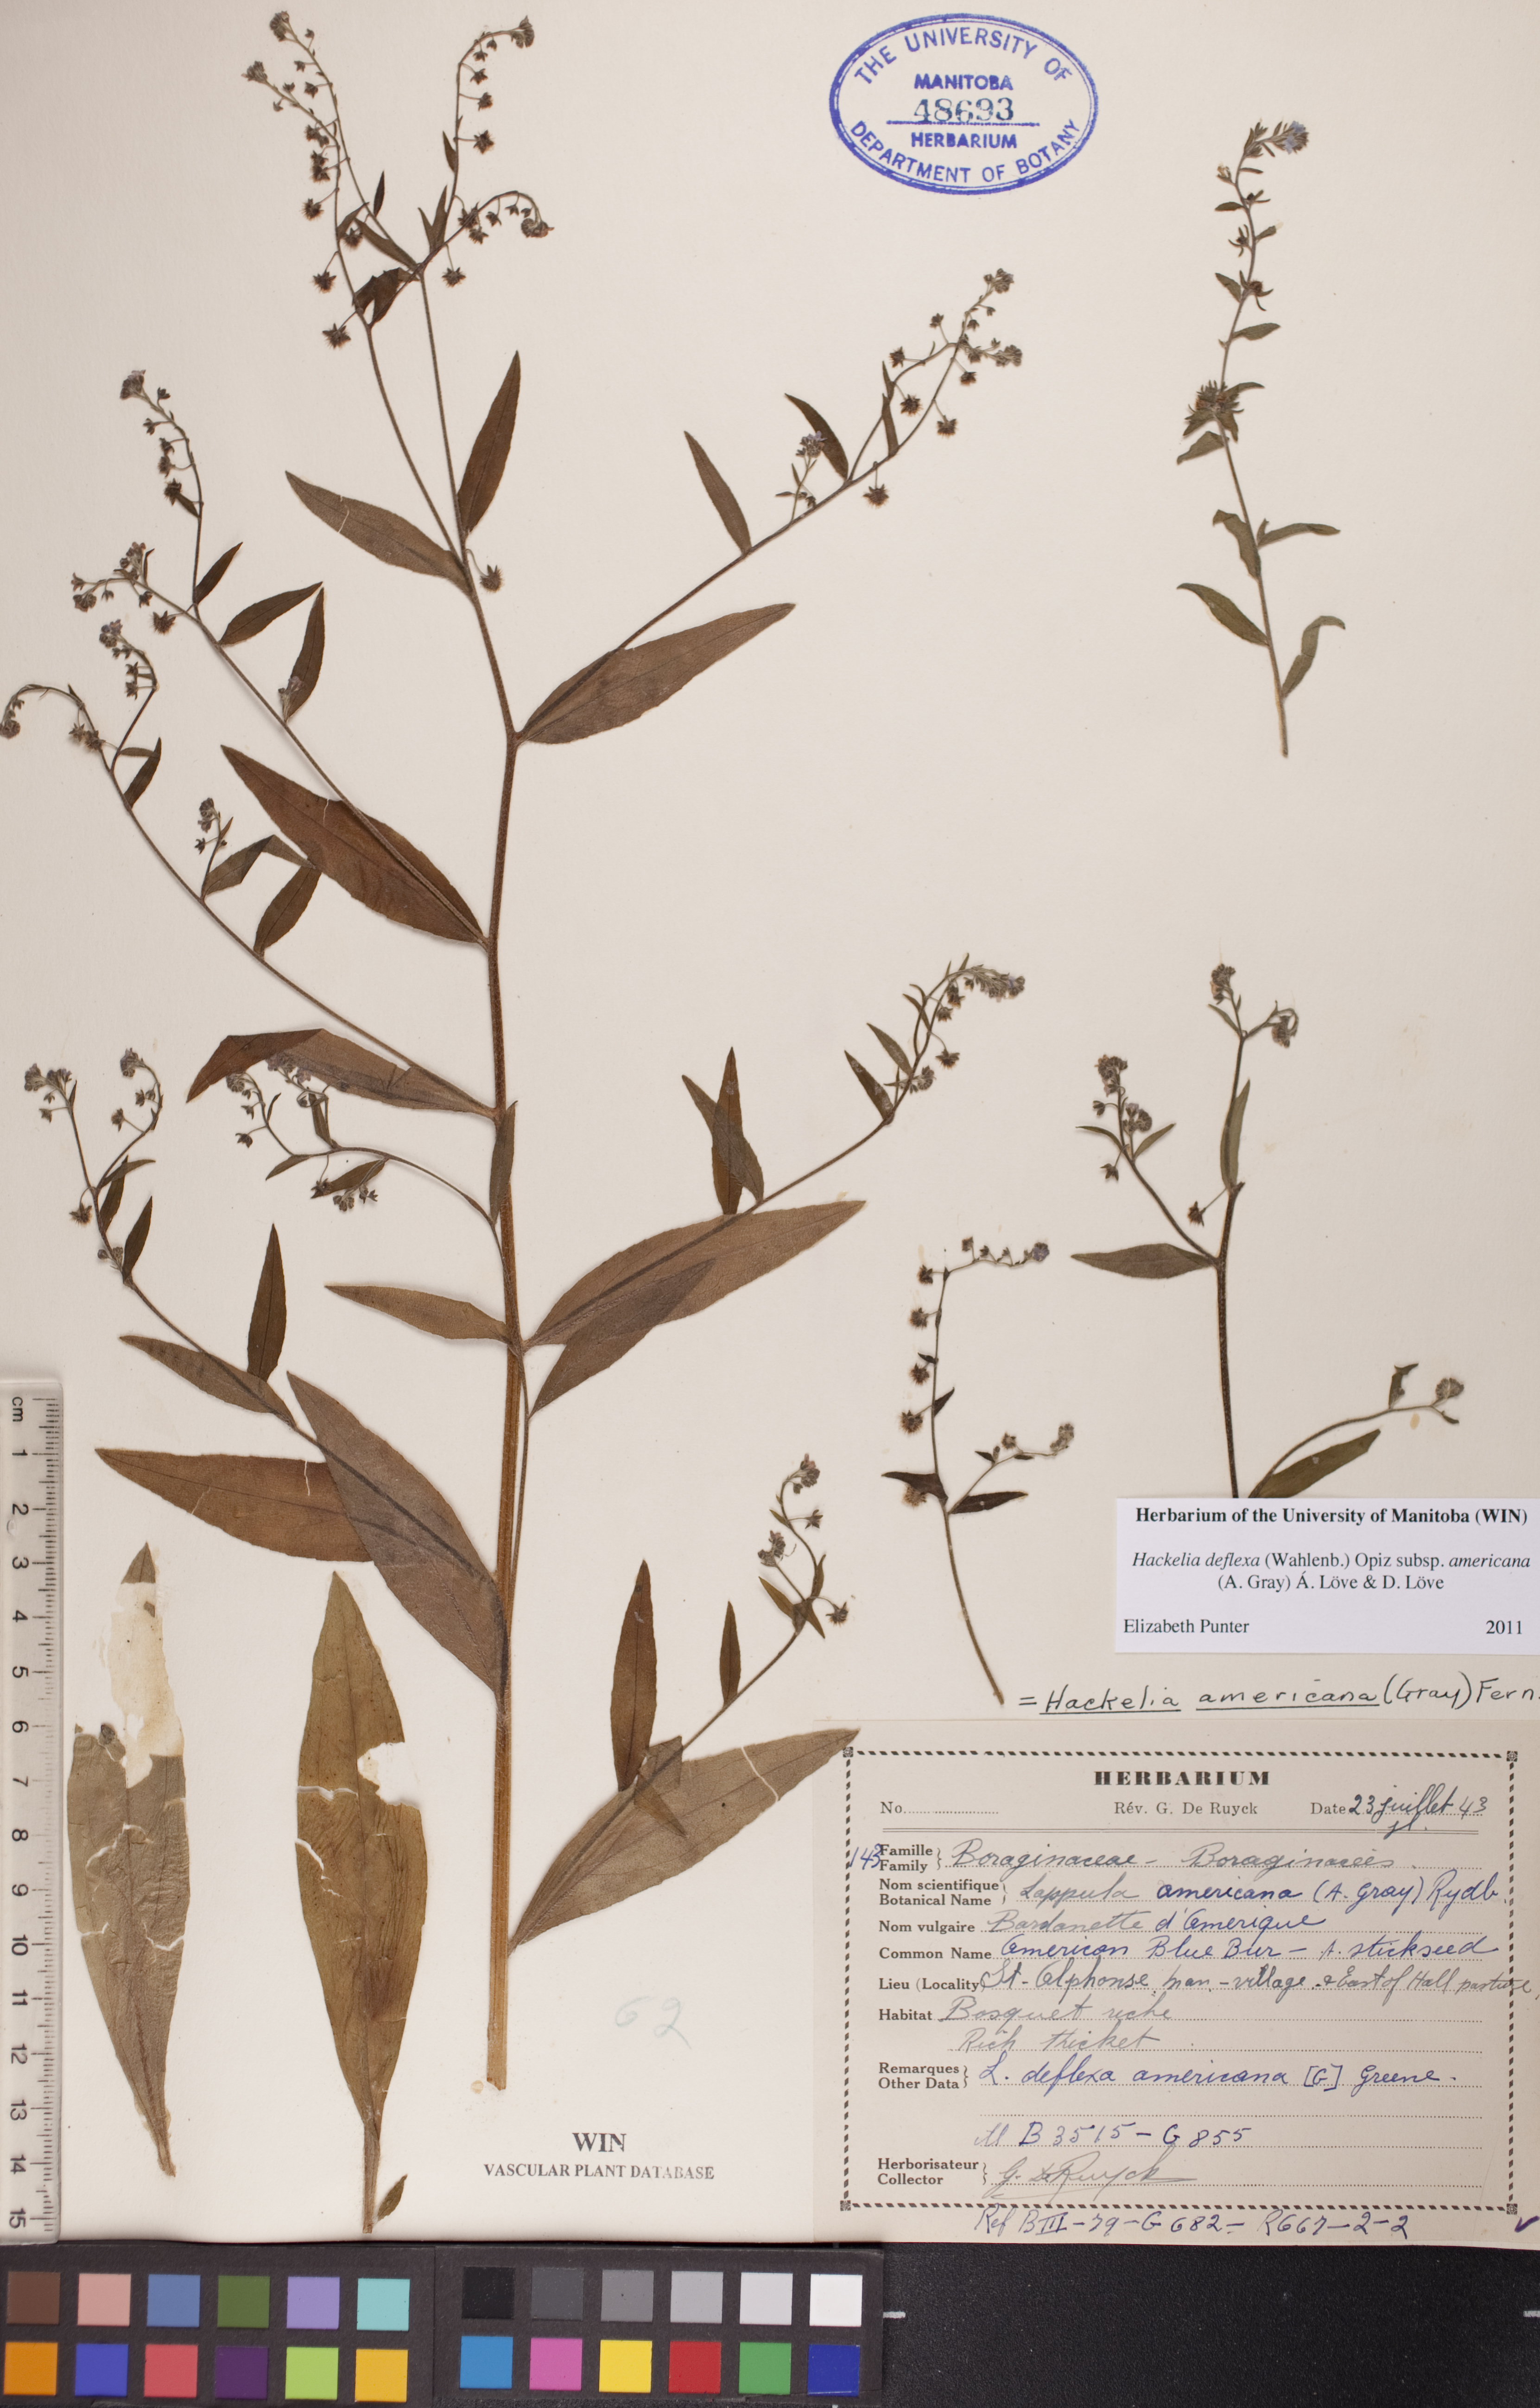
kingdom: Plantae
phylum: Tracheophyta
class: Magnoliopsida
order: Boraginales
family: Boraginaceae
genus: Hackelia
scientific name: Hackelia deflexa
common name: Nodding stickseed
